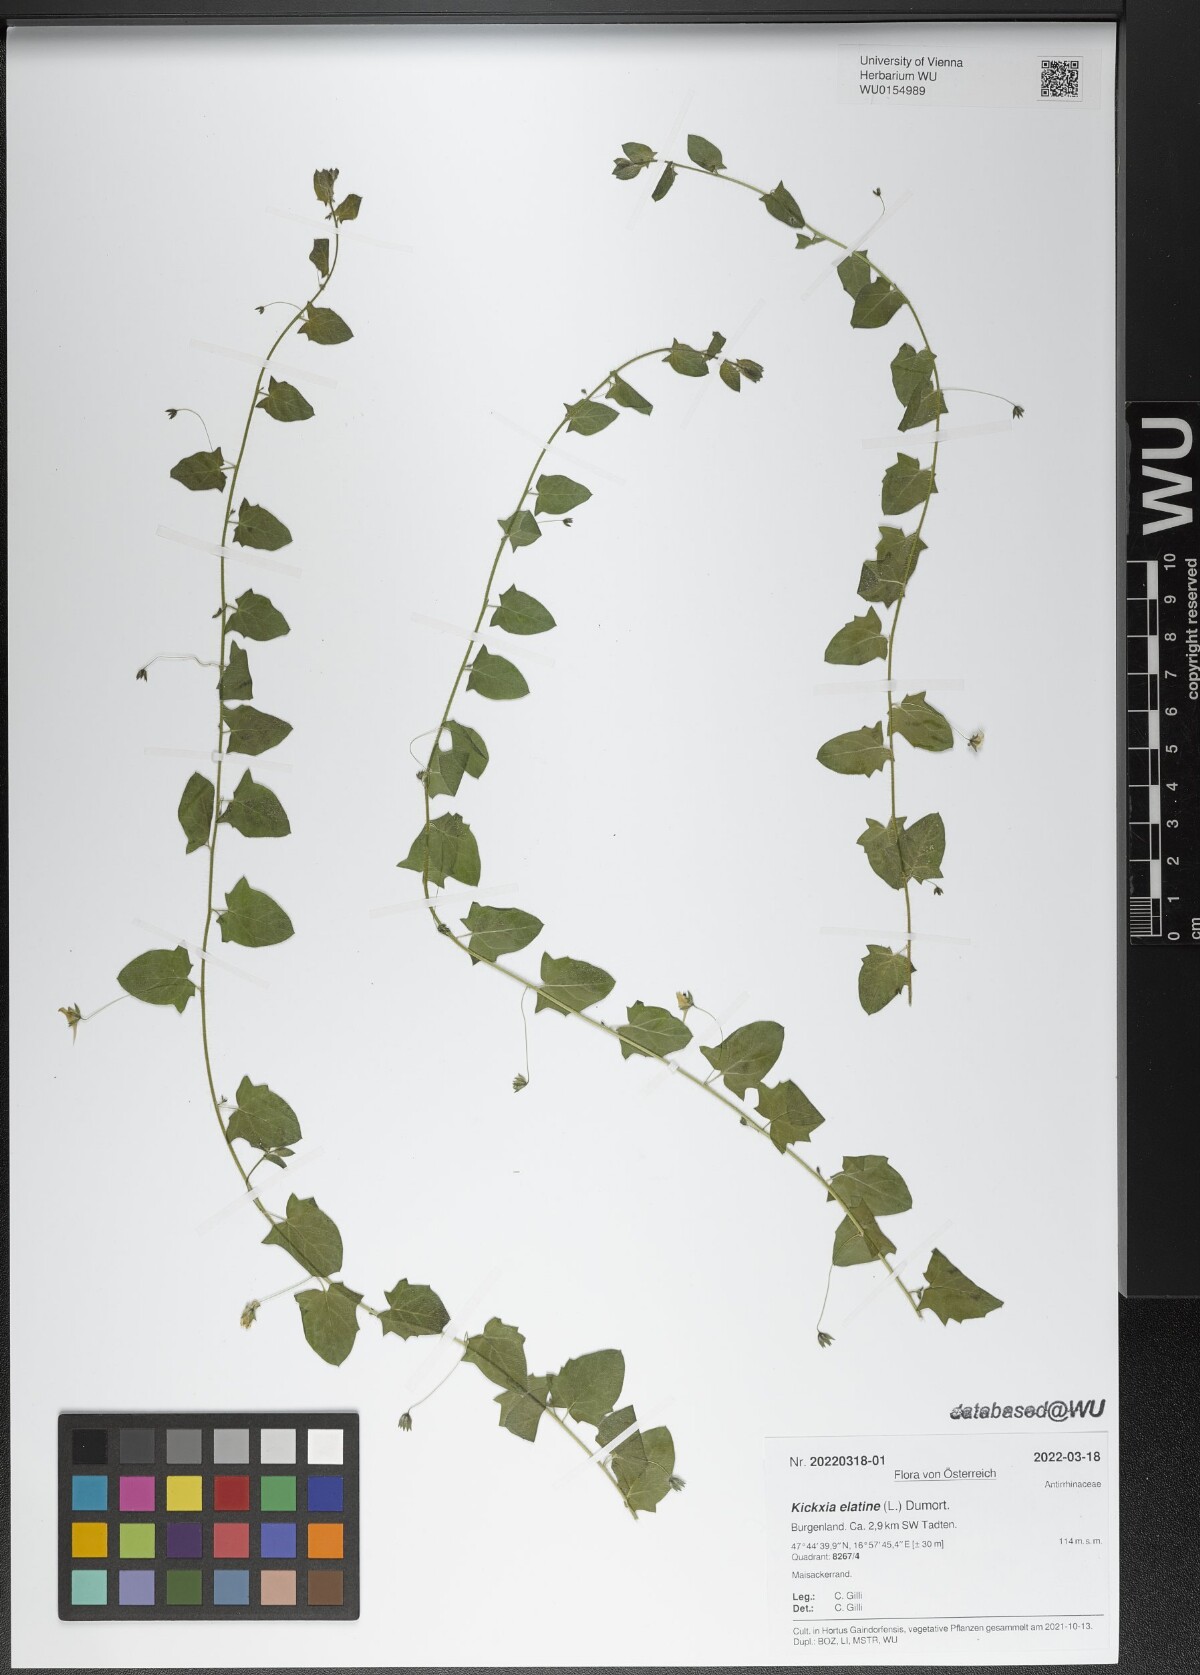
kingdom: Plantae
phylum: Tracheophyta
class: Magnoliopsida
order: Lamiales
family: Plantaginaceae
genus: Kickxia
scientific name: Kickxia elatine
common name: Sharp-leaved fluellen
